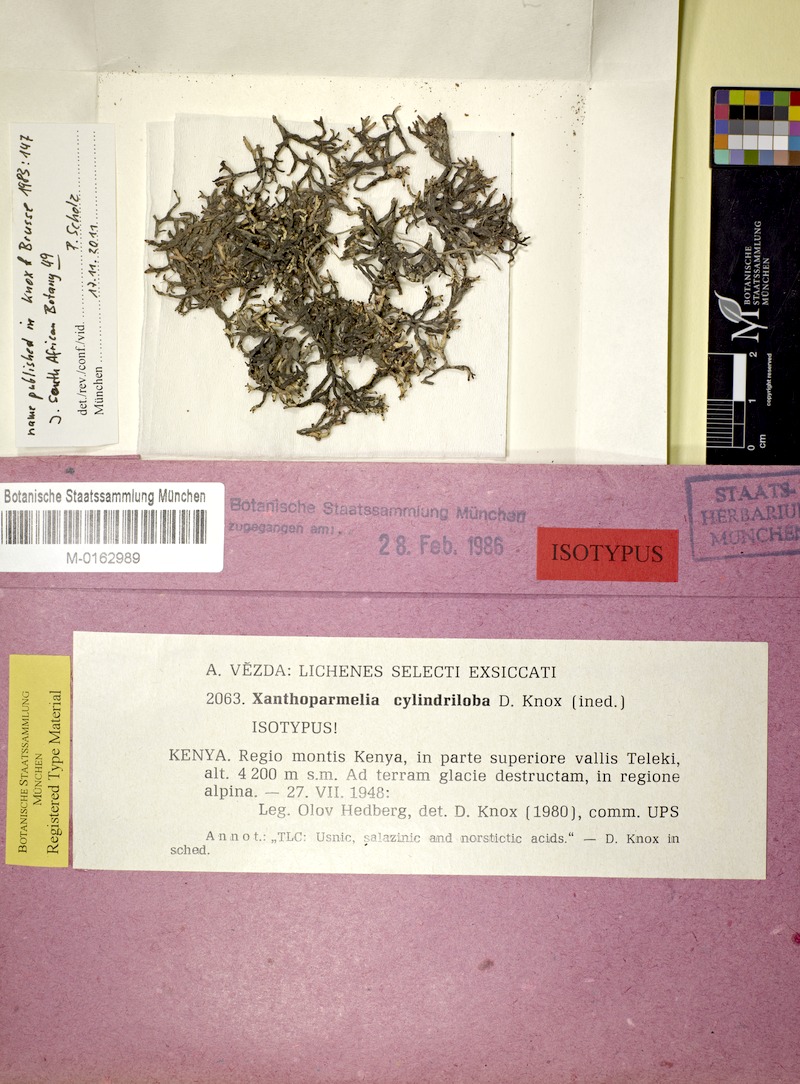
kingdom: Fungi
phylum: Ascomycota
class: Lecanoromycetes
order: Lecanorales
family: Parmeliaceae
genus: Xanthoparmelia
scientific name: Xanthoparmelia
